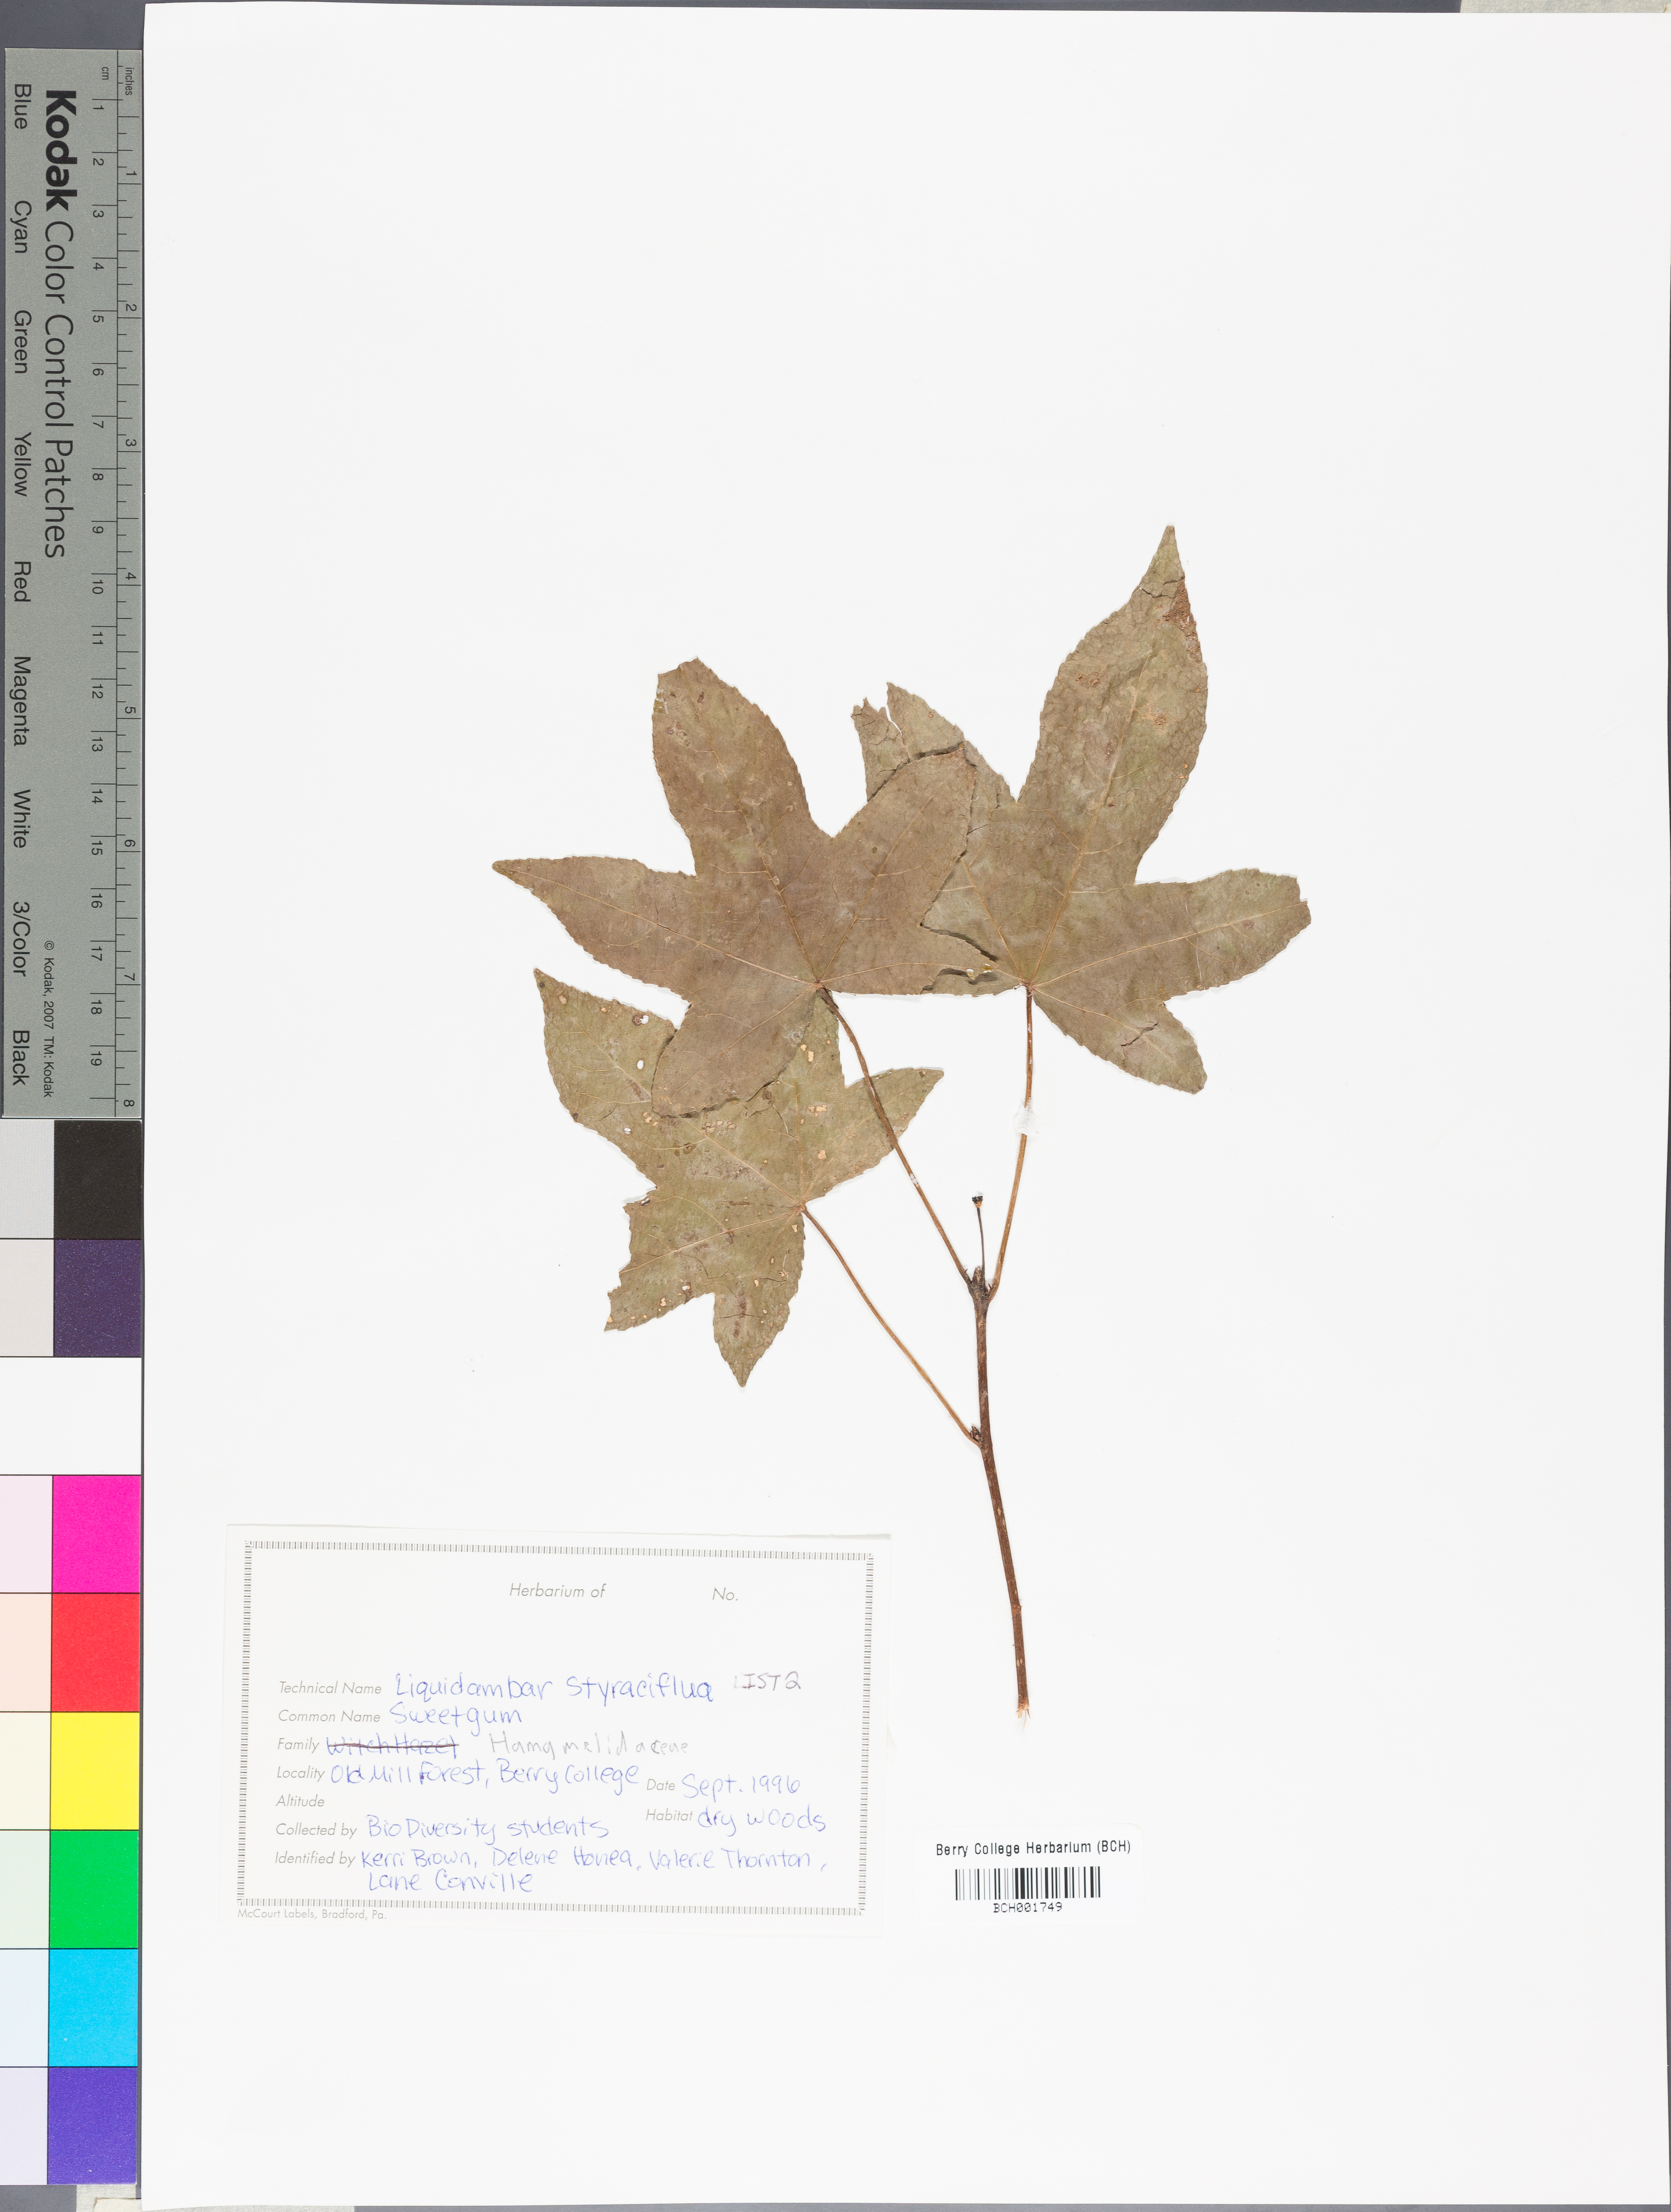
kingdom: Plantae
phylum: Tracheophyta
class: Magnoliopsida
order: Saxifragales
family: Altingiaceae
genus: Liquidambar
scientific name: Liquidambar styraciflua
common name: Sweet gum
